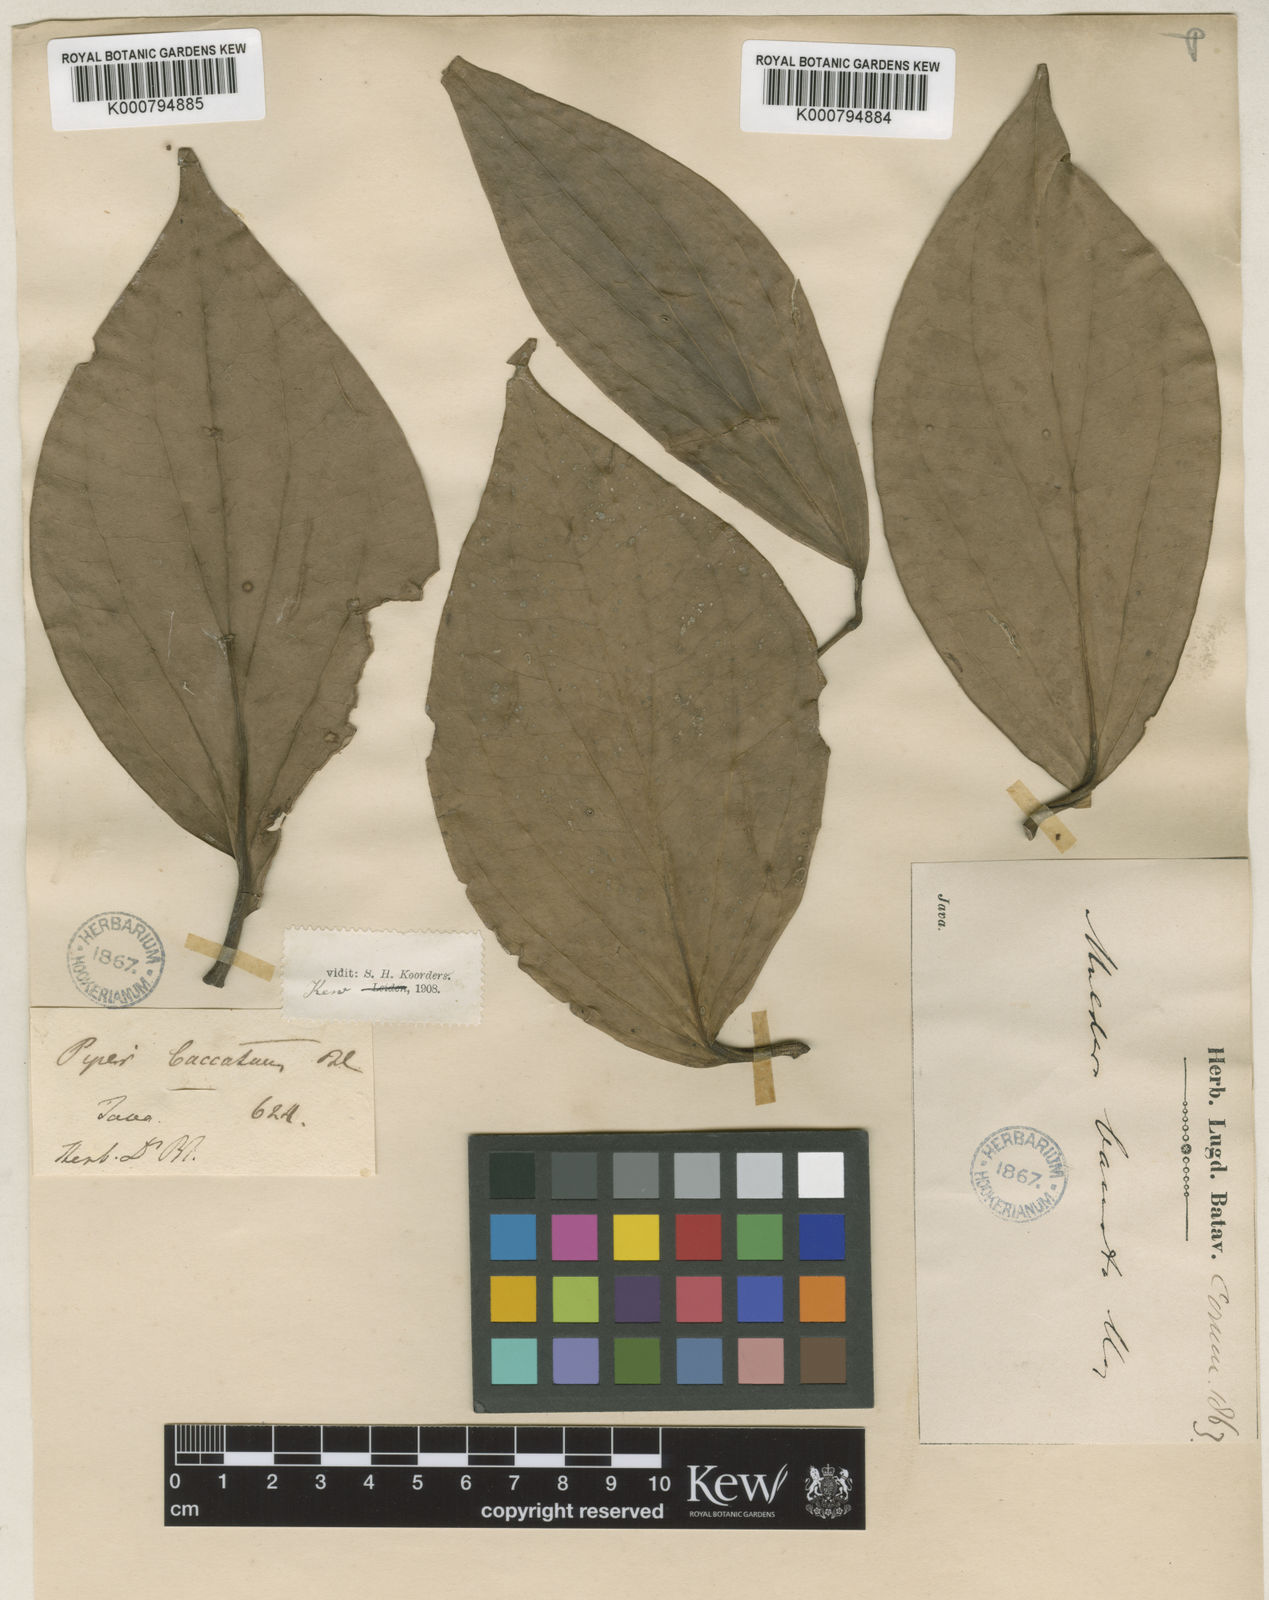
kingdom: Plantae
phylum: Tracheophyta
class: Magnoliopsida
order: Piperales
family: Piperaceae
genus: Piper
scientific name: Piper baccatum
